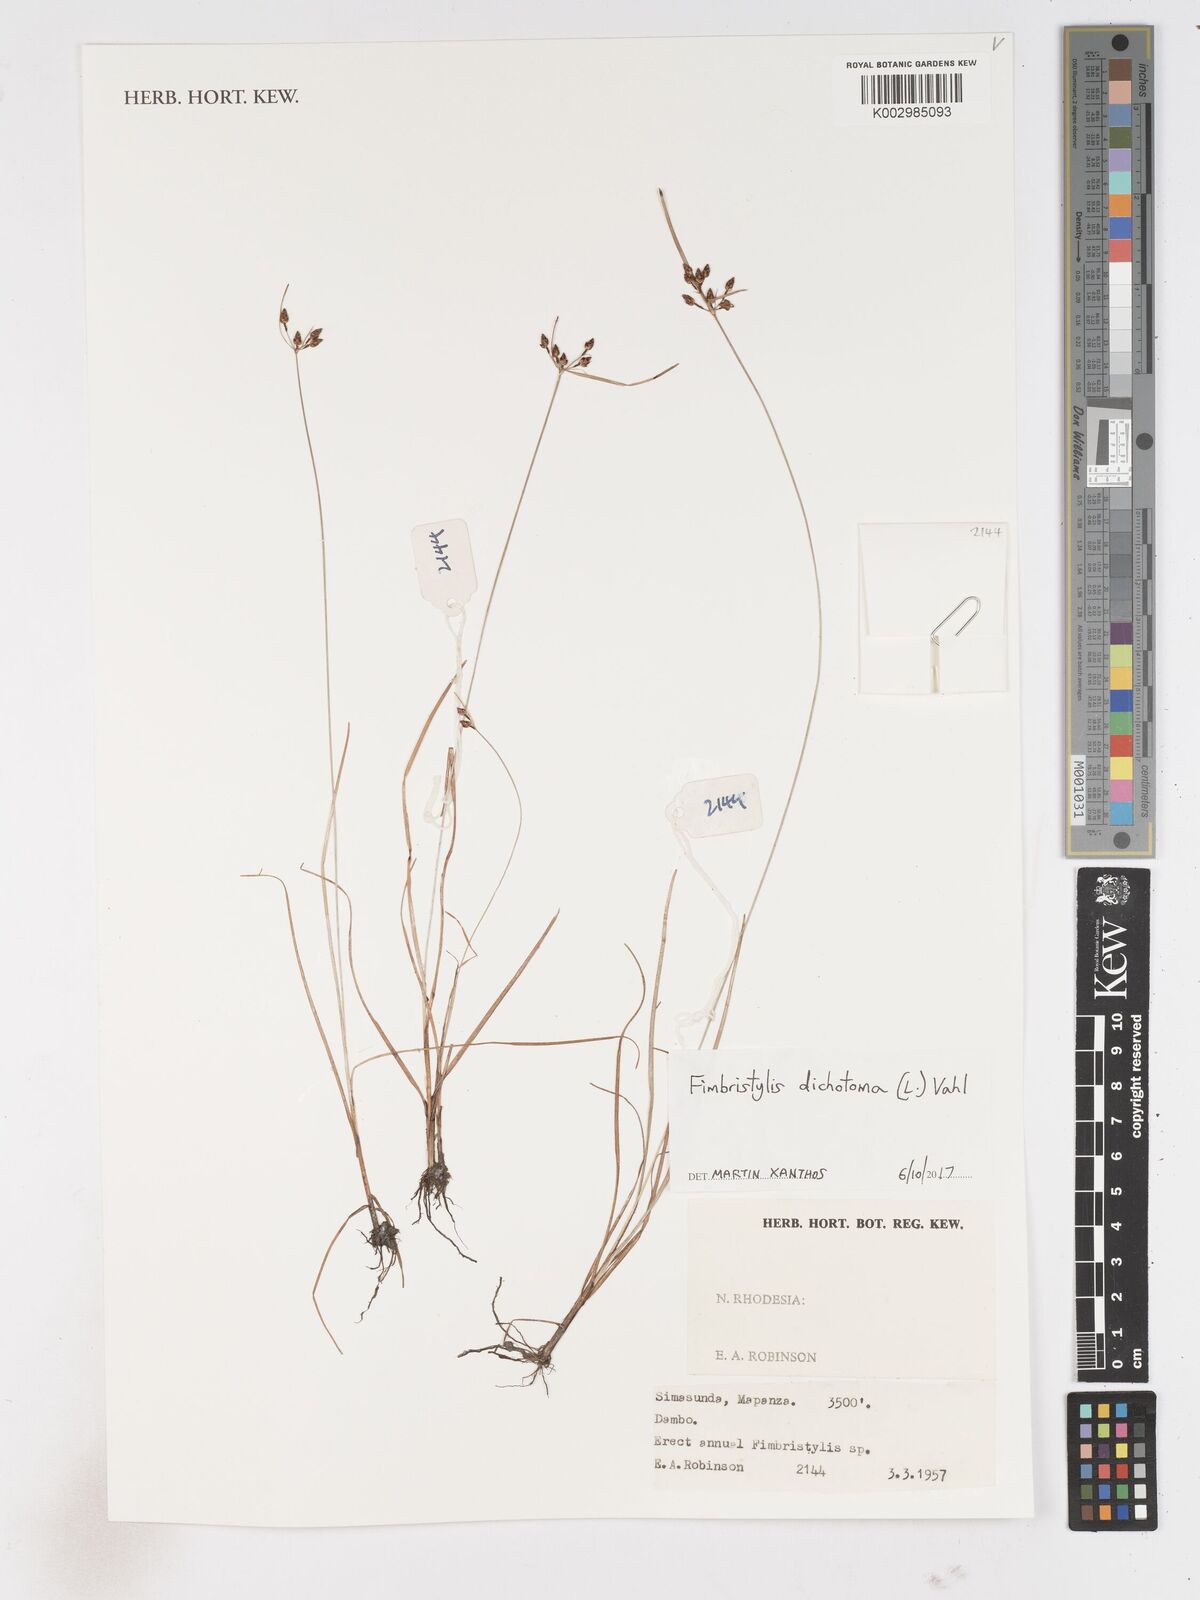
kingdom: Plantae
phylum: Tracheophyta
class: Liliopsida
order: Poales
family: Cyperaceae
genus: Fimbristylis
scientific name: Fimbristylis dichotoma
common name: Forked fimbry
